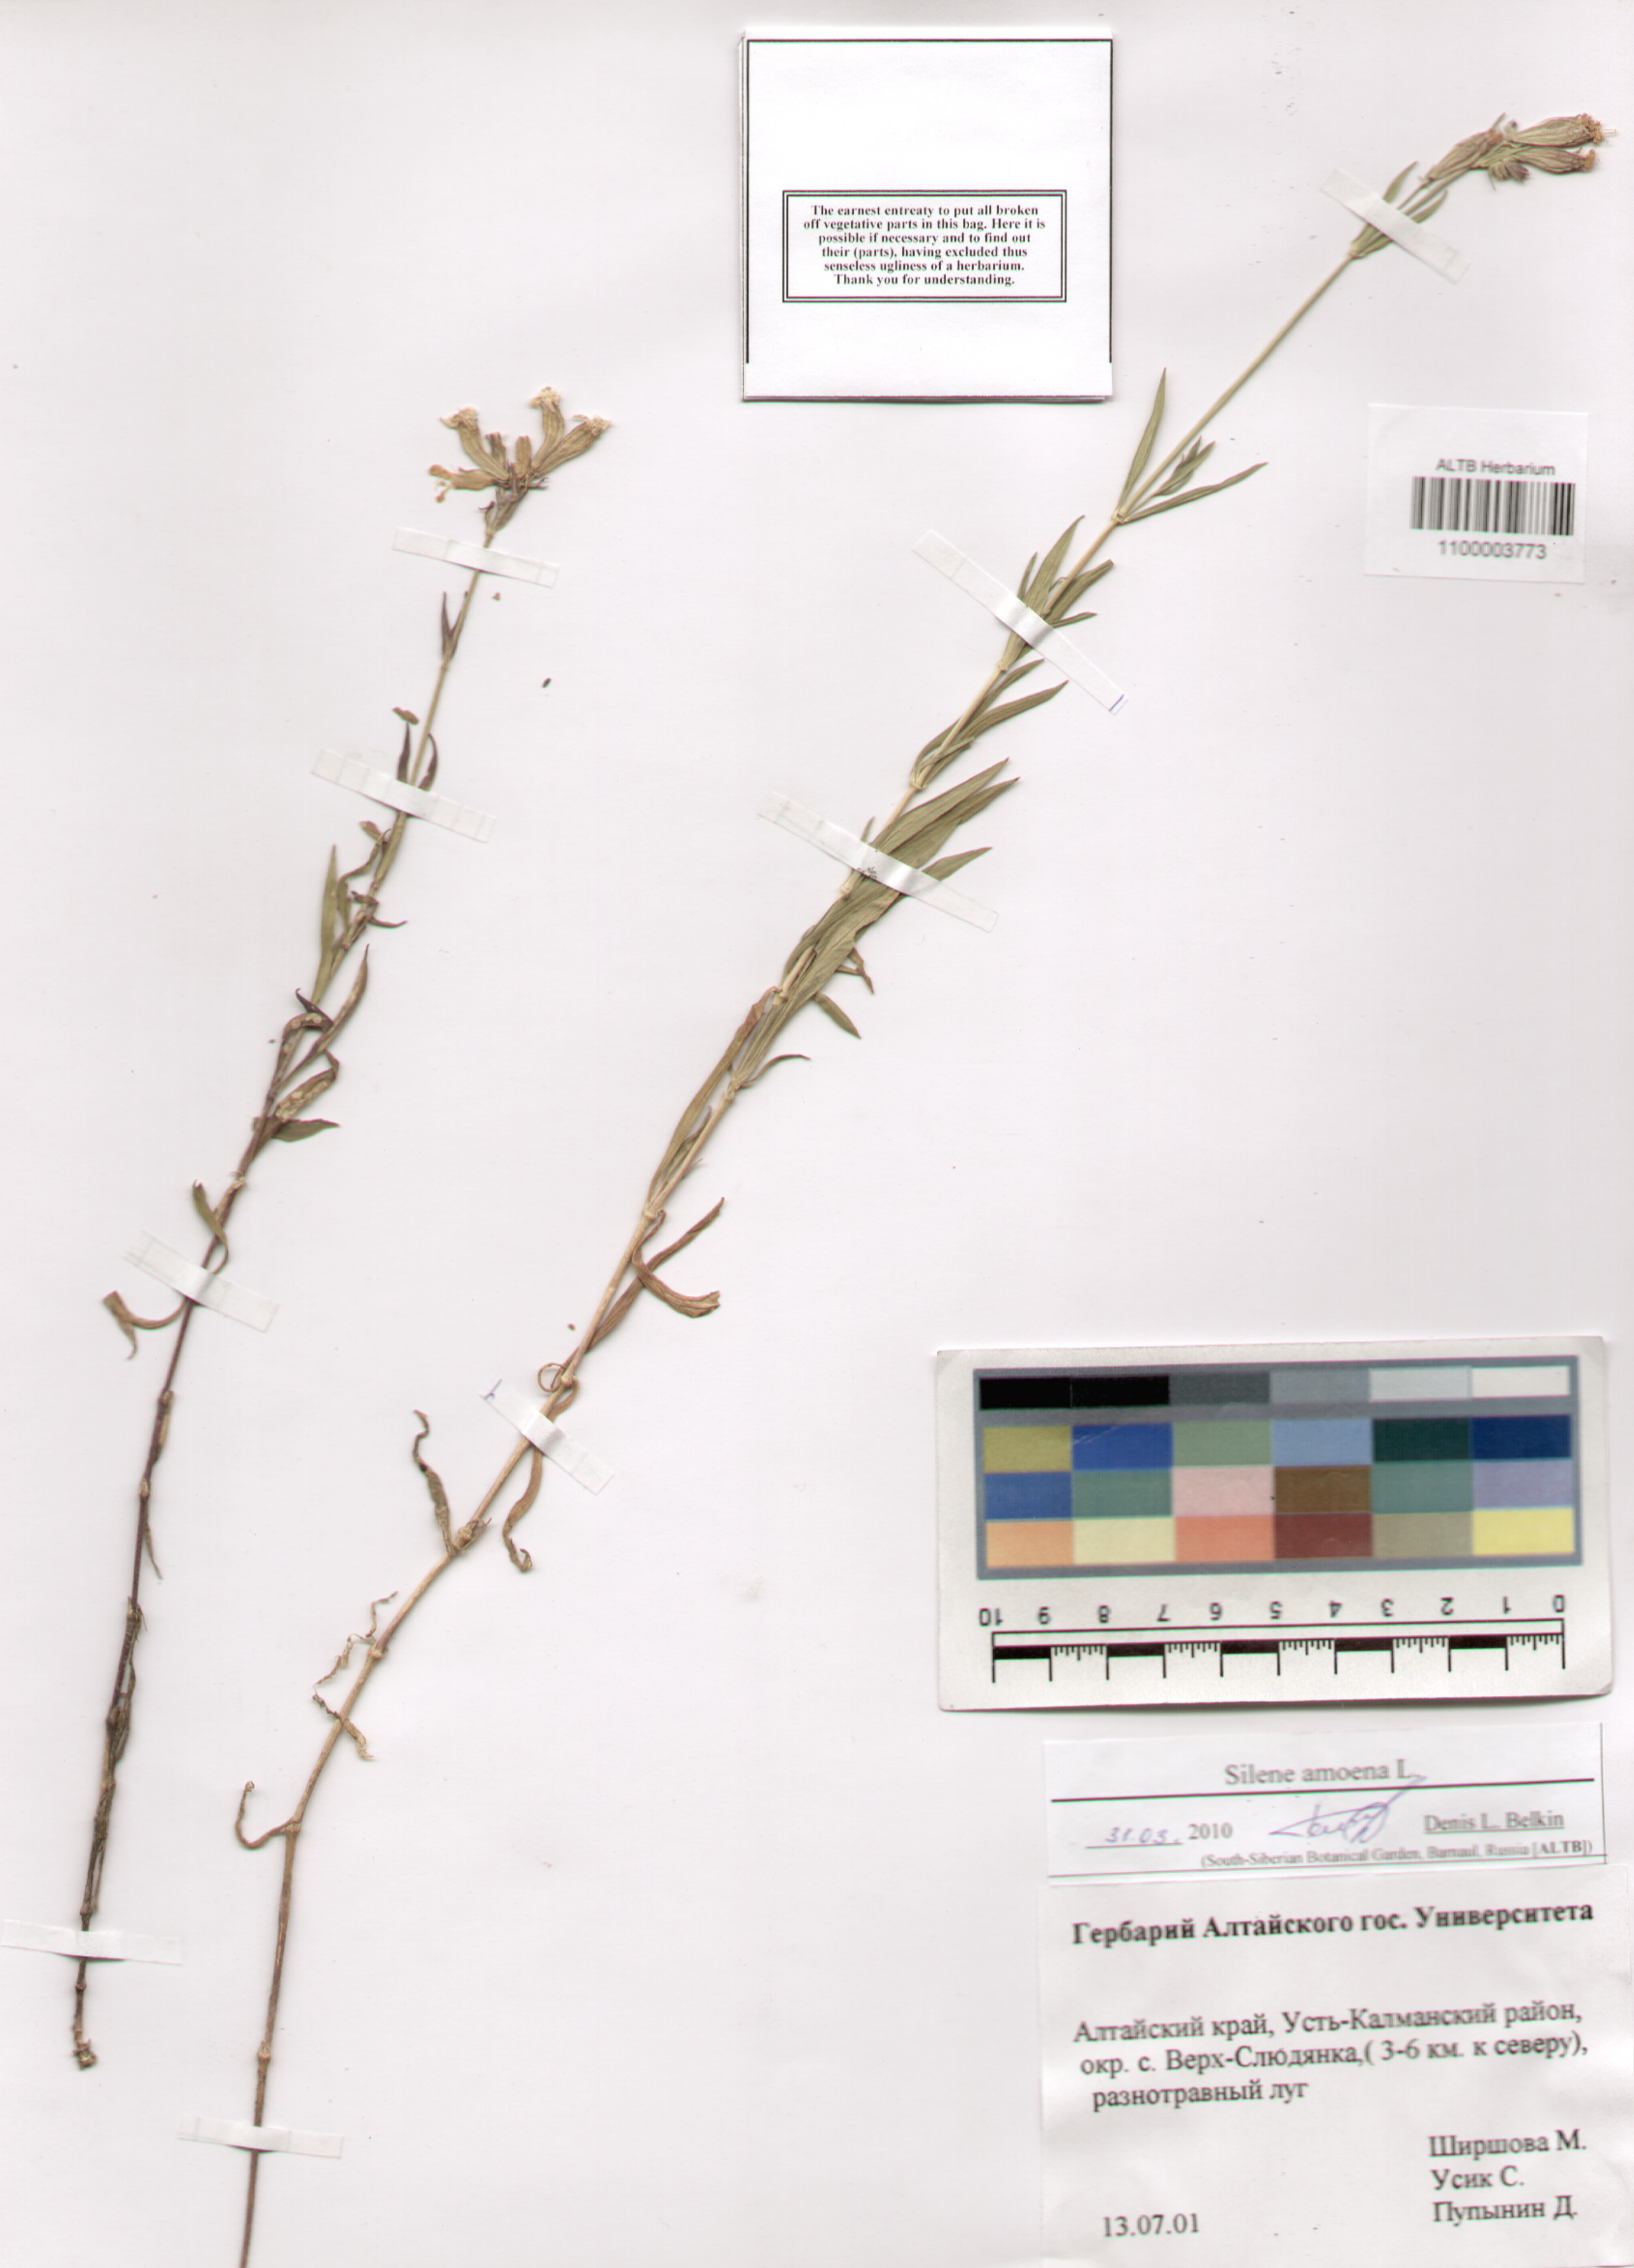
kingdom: Plantae
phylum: Tracheophyta
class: Magnoliopsida
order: Caryophyllales
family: Caryophyllaceae
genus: Silene
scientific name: Silene amoena
